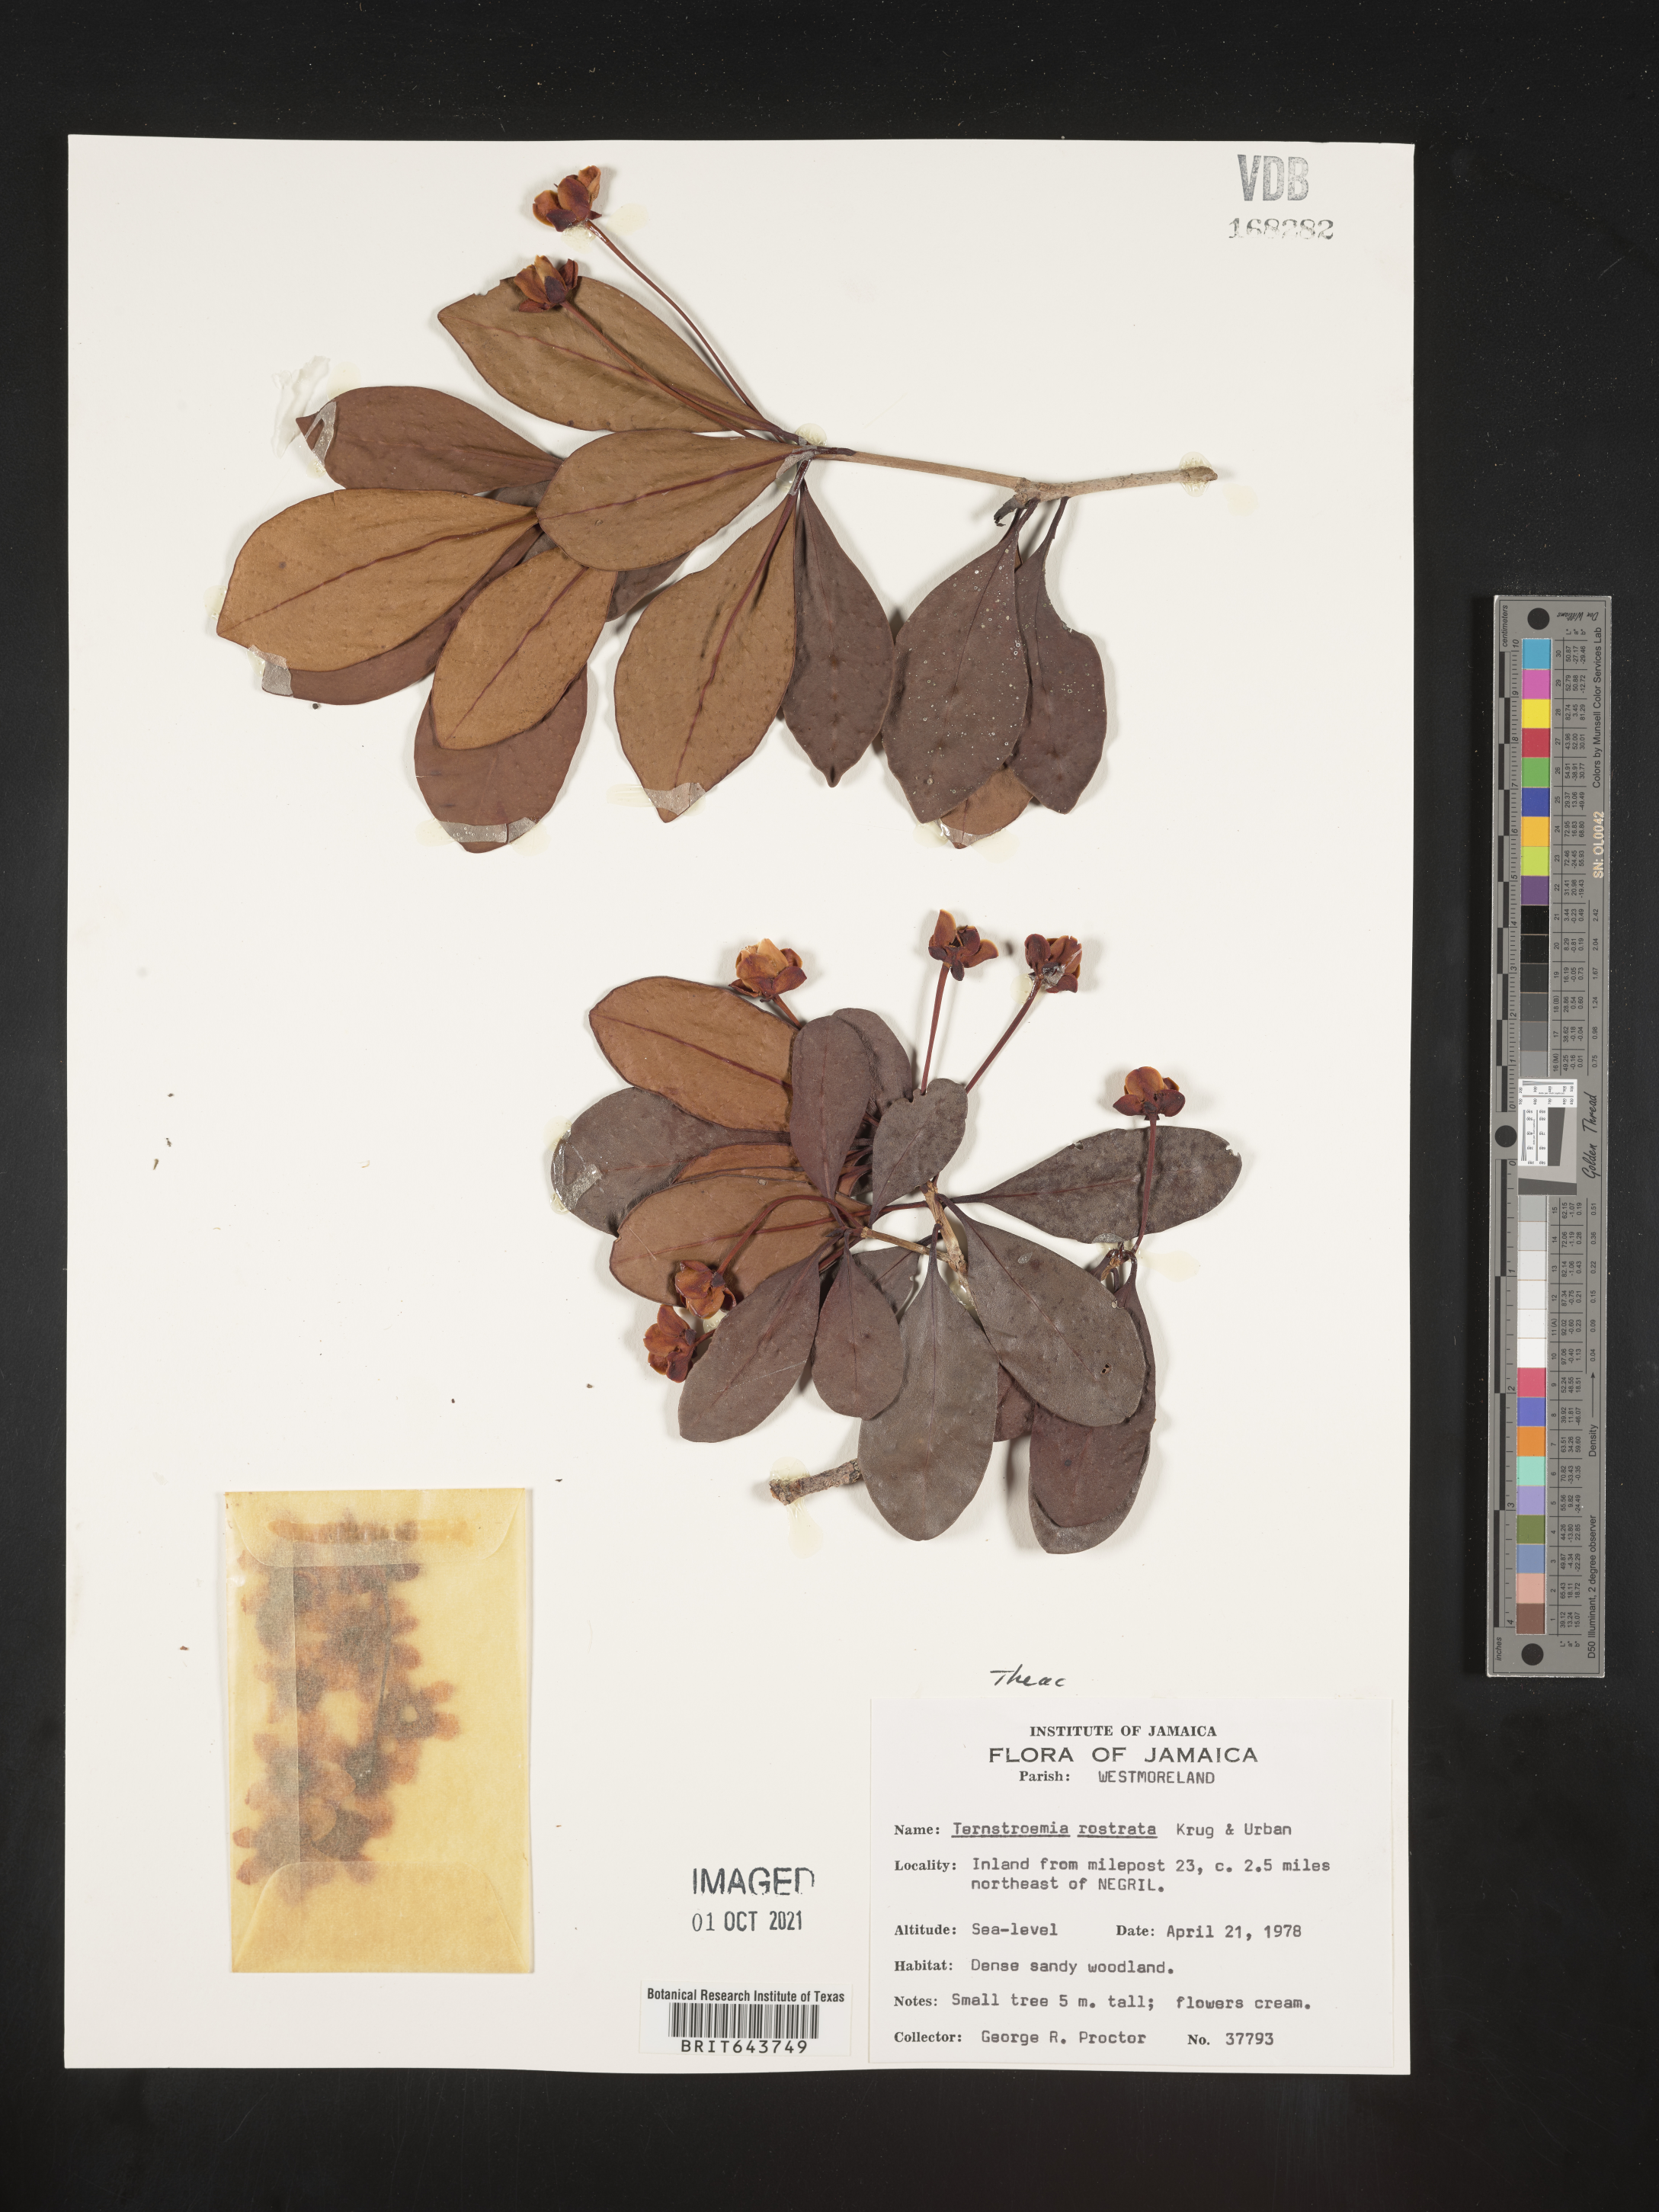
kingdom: Plantae
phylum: Tracheophyta
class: Magnoliopsida
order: Ericales
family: Pentaphylacaceae
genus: Ternstroemia
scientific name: Ternstroemia
